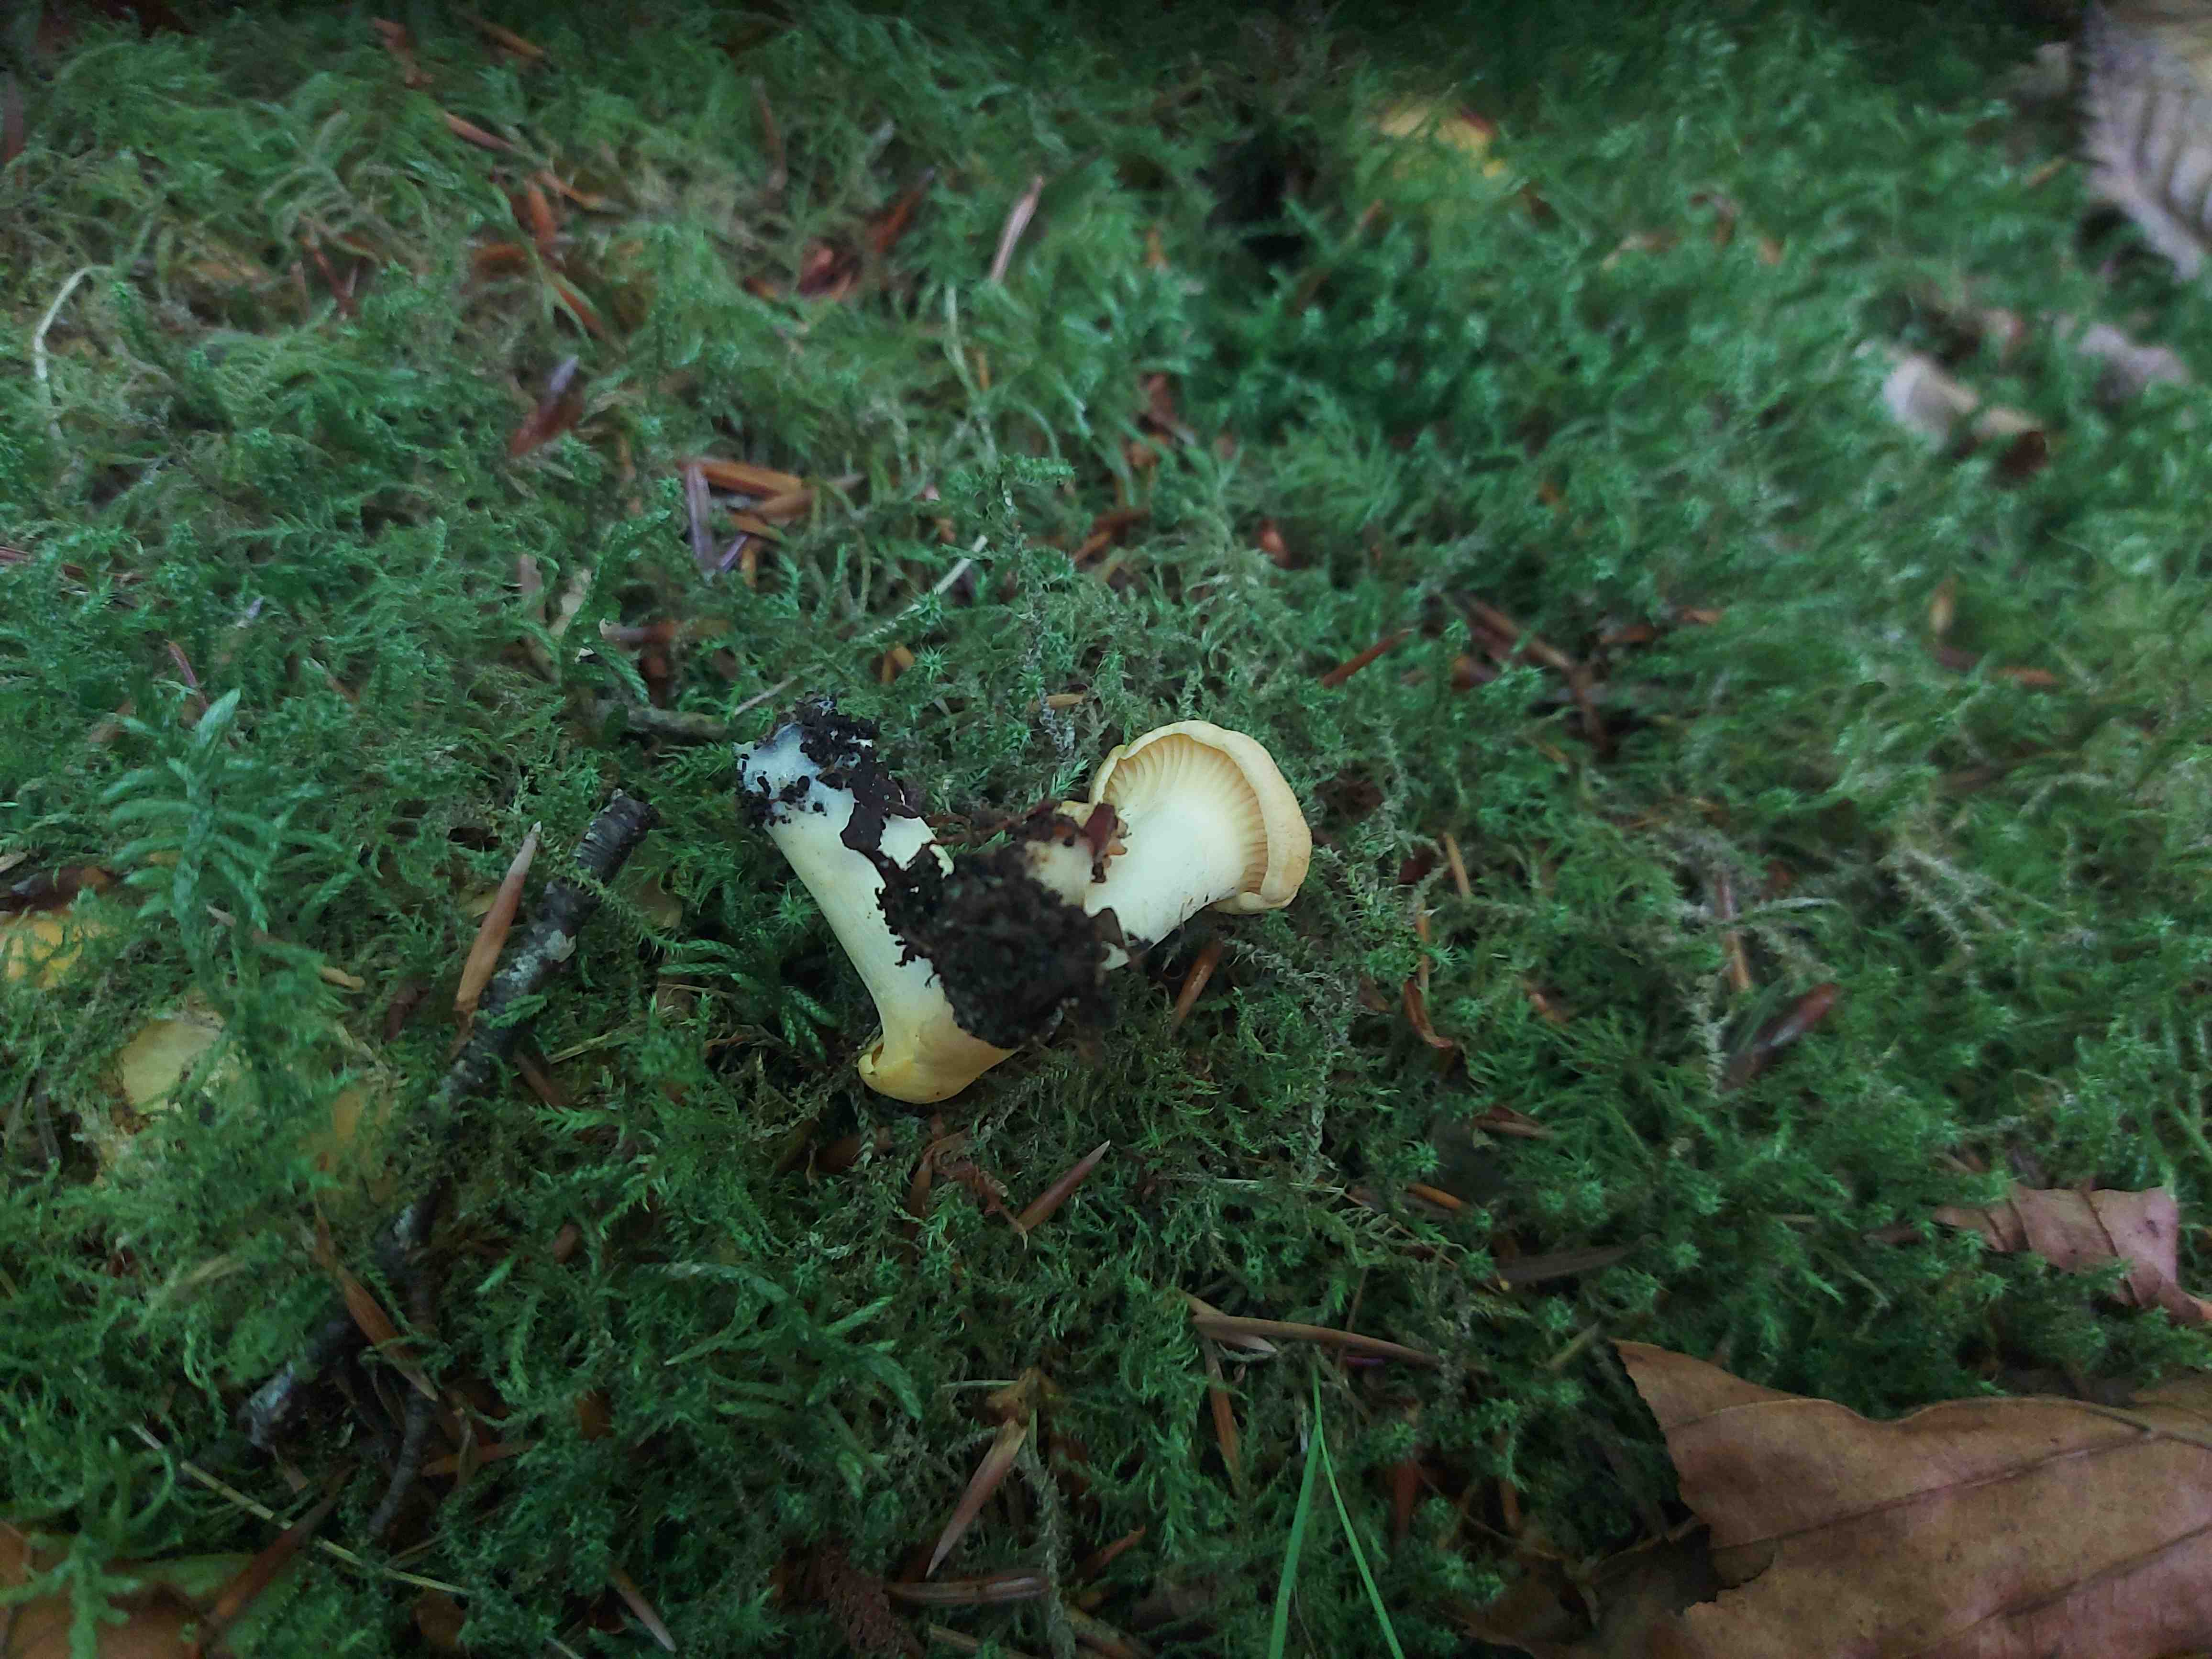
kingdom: Fungi
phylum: Basidiomycota
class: Agaricomycetes
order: Cantharellales
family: Hydnaceae
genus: Cantharellus
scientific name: Cantharellus cibarius
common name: almindelig kantarel
